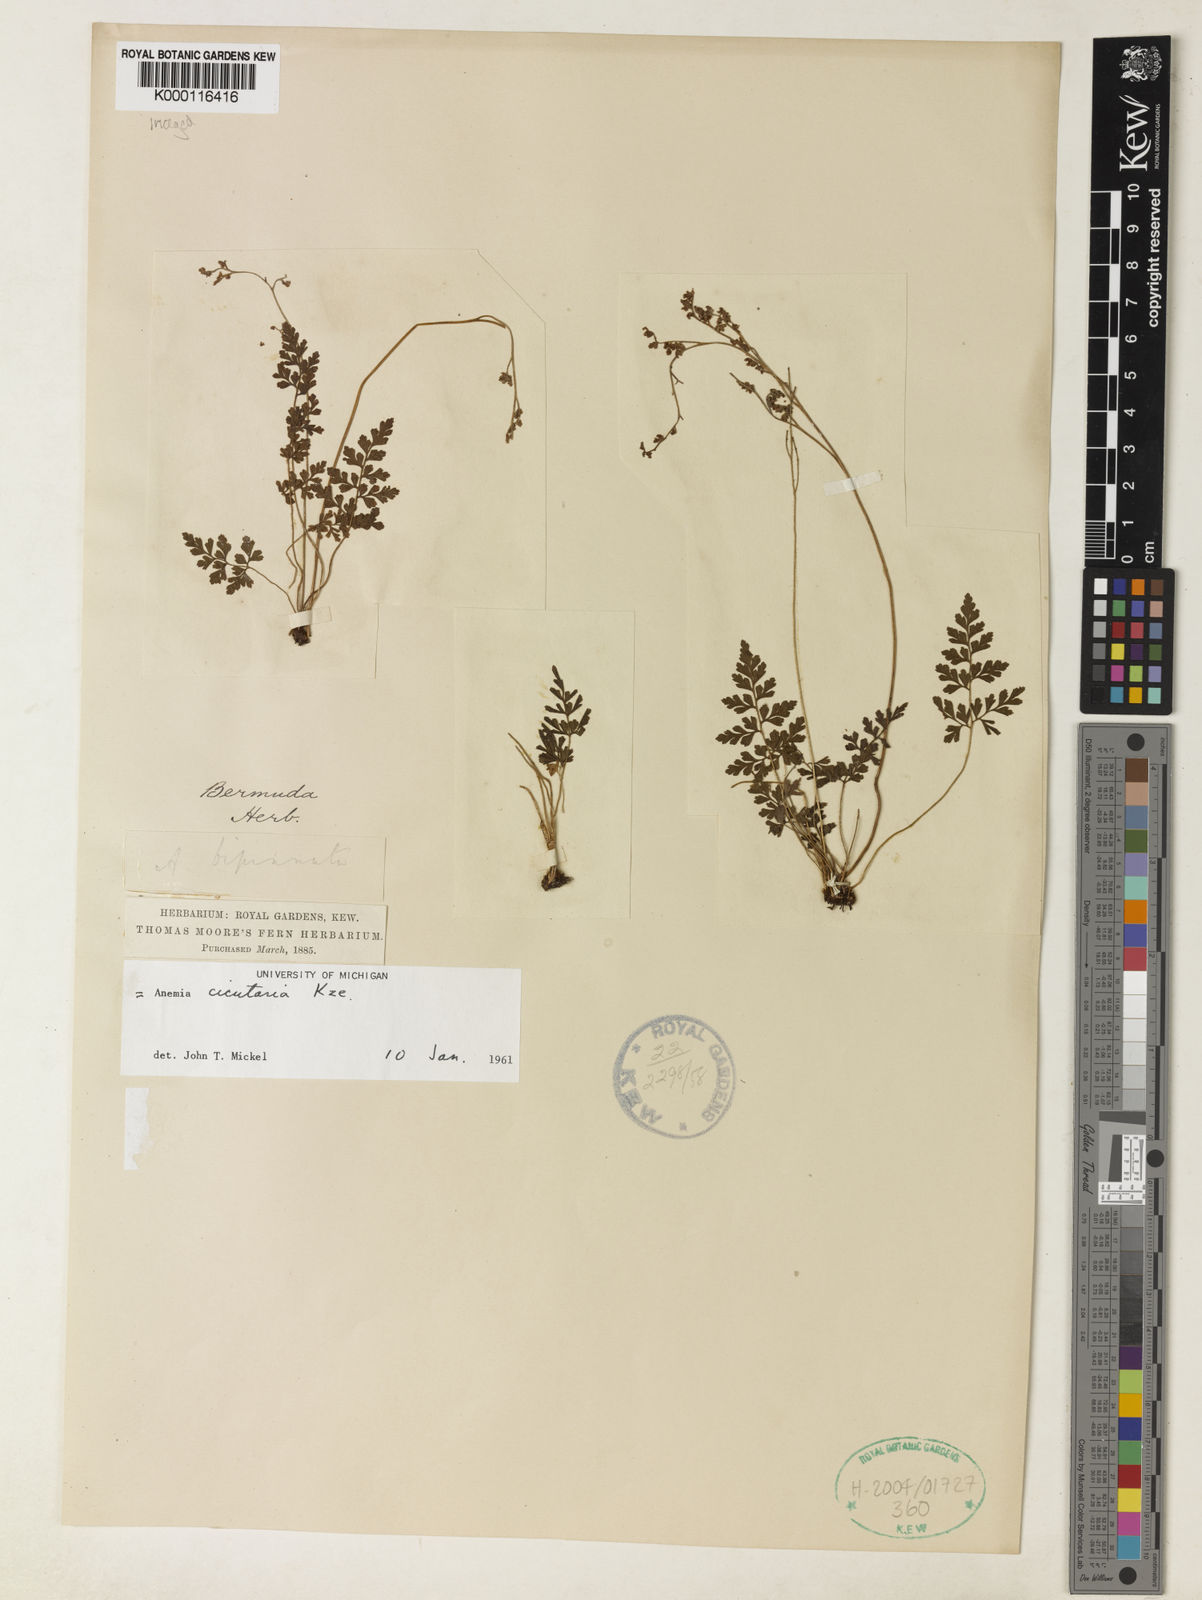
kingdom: Plantae
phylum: Tracheophyta
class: Polypodiopsida
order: Schizaeales
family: Anemiaceae
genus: Anemia
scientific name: Anemia
